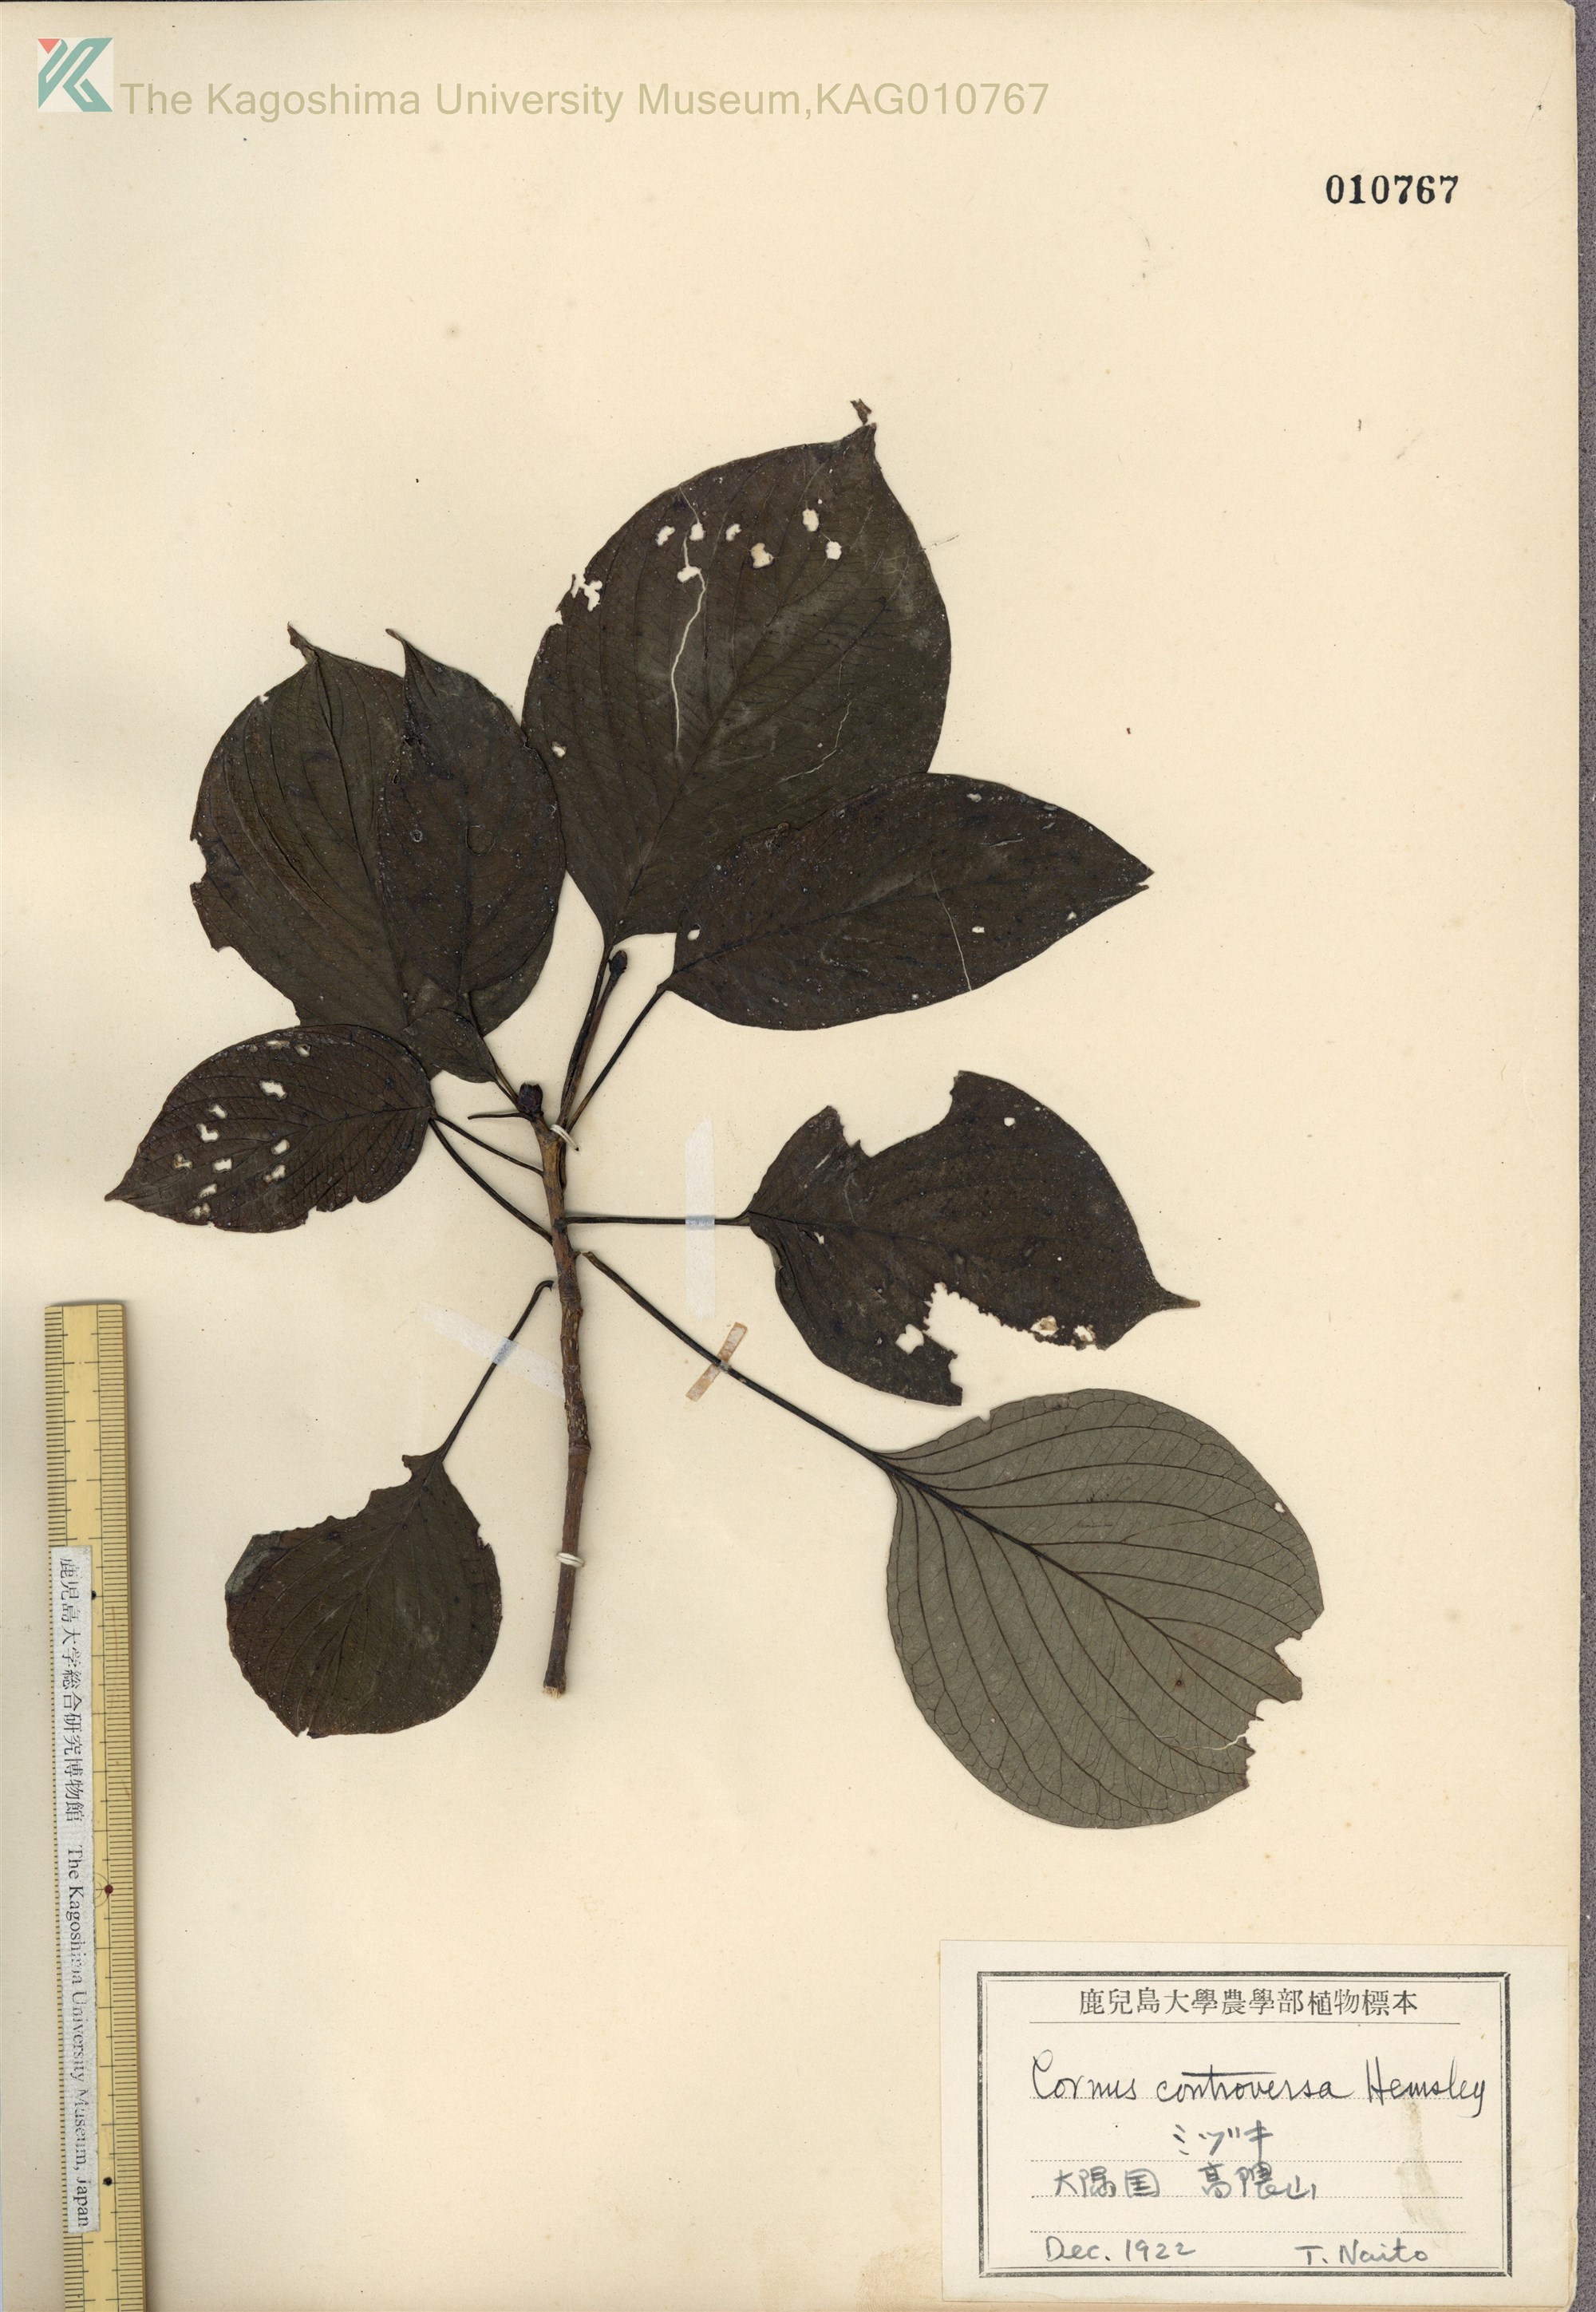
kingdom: Plantae
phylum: Tracheophyta
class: Magnoliopsida
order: Cornales
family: Cornaceae
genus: Cornus
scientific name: Cornus controversa
